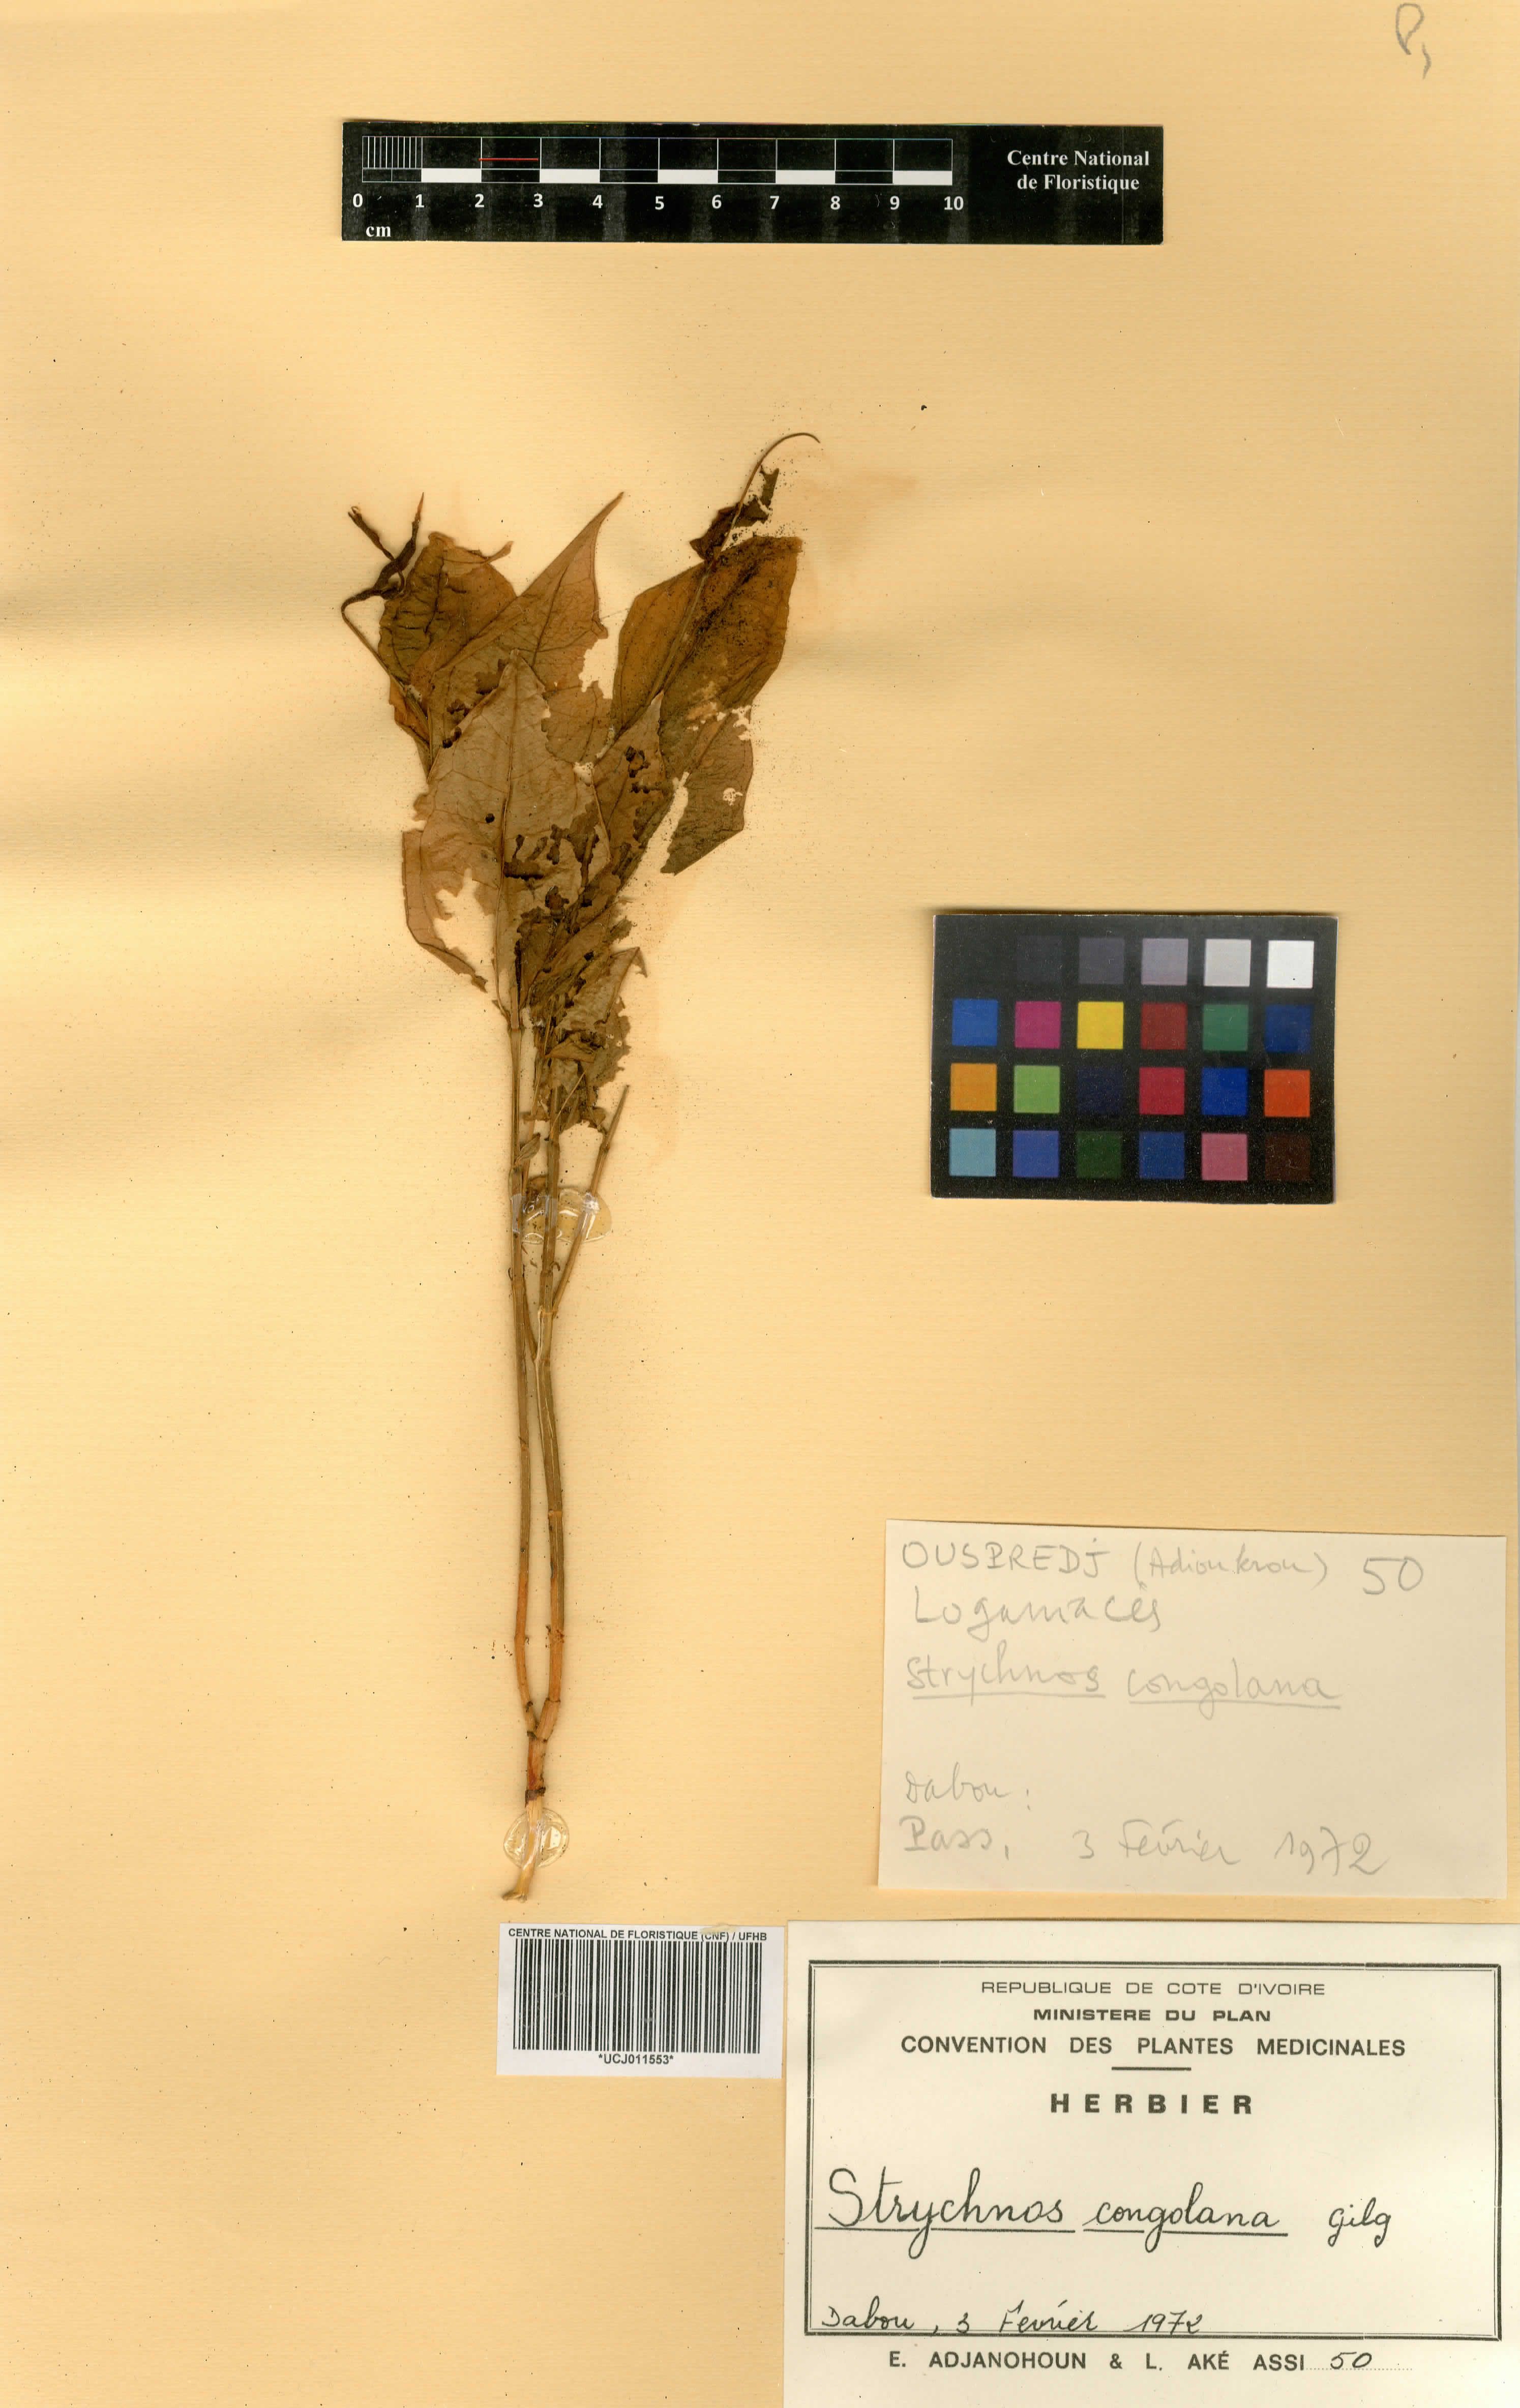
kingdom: Plantae
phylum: Tracheophyta
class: Magnoliopsida
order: Gentianales
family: Loganiaceae
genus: Strychnos
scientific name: Strychnos congolana
